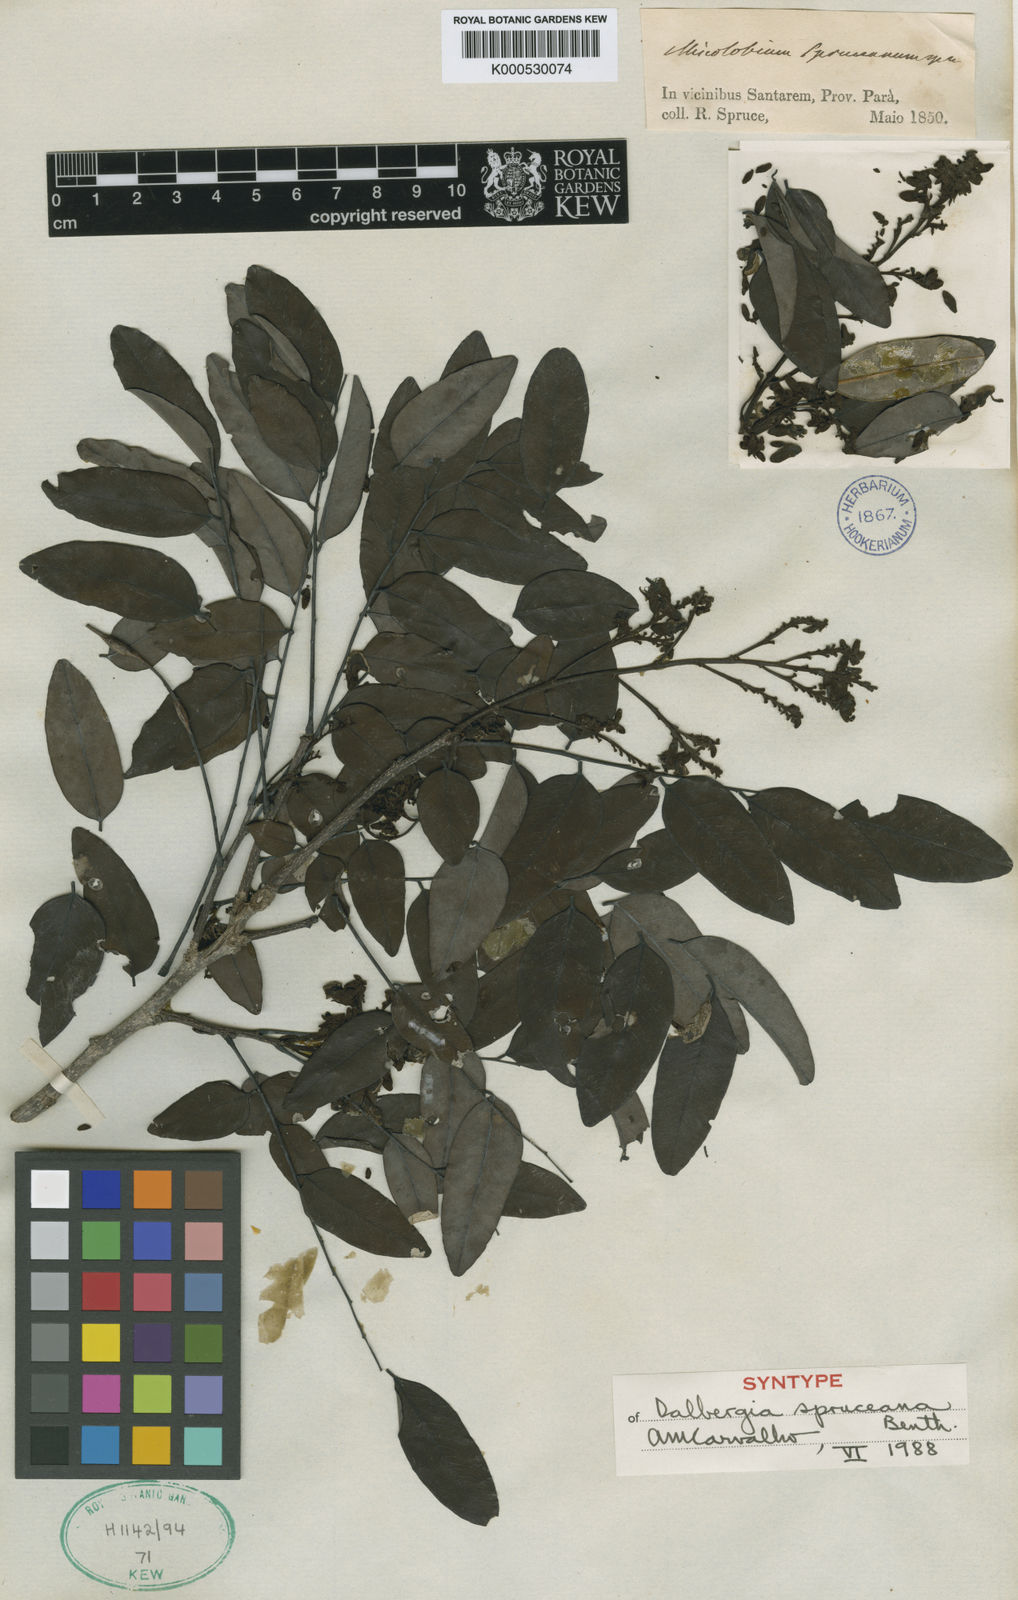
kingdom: Plantae
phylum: Tracheophyta
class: Magnoliopsida
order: Fabales
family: Fabaceae
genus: Dalbergia
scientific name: Dalbergia spruceana
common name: Amazon rosewood
